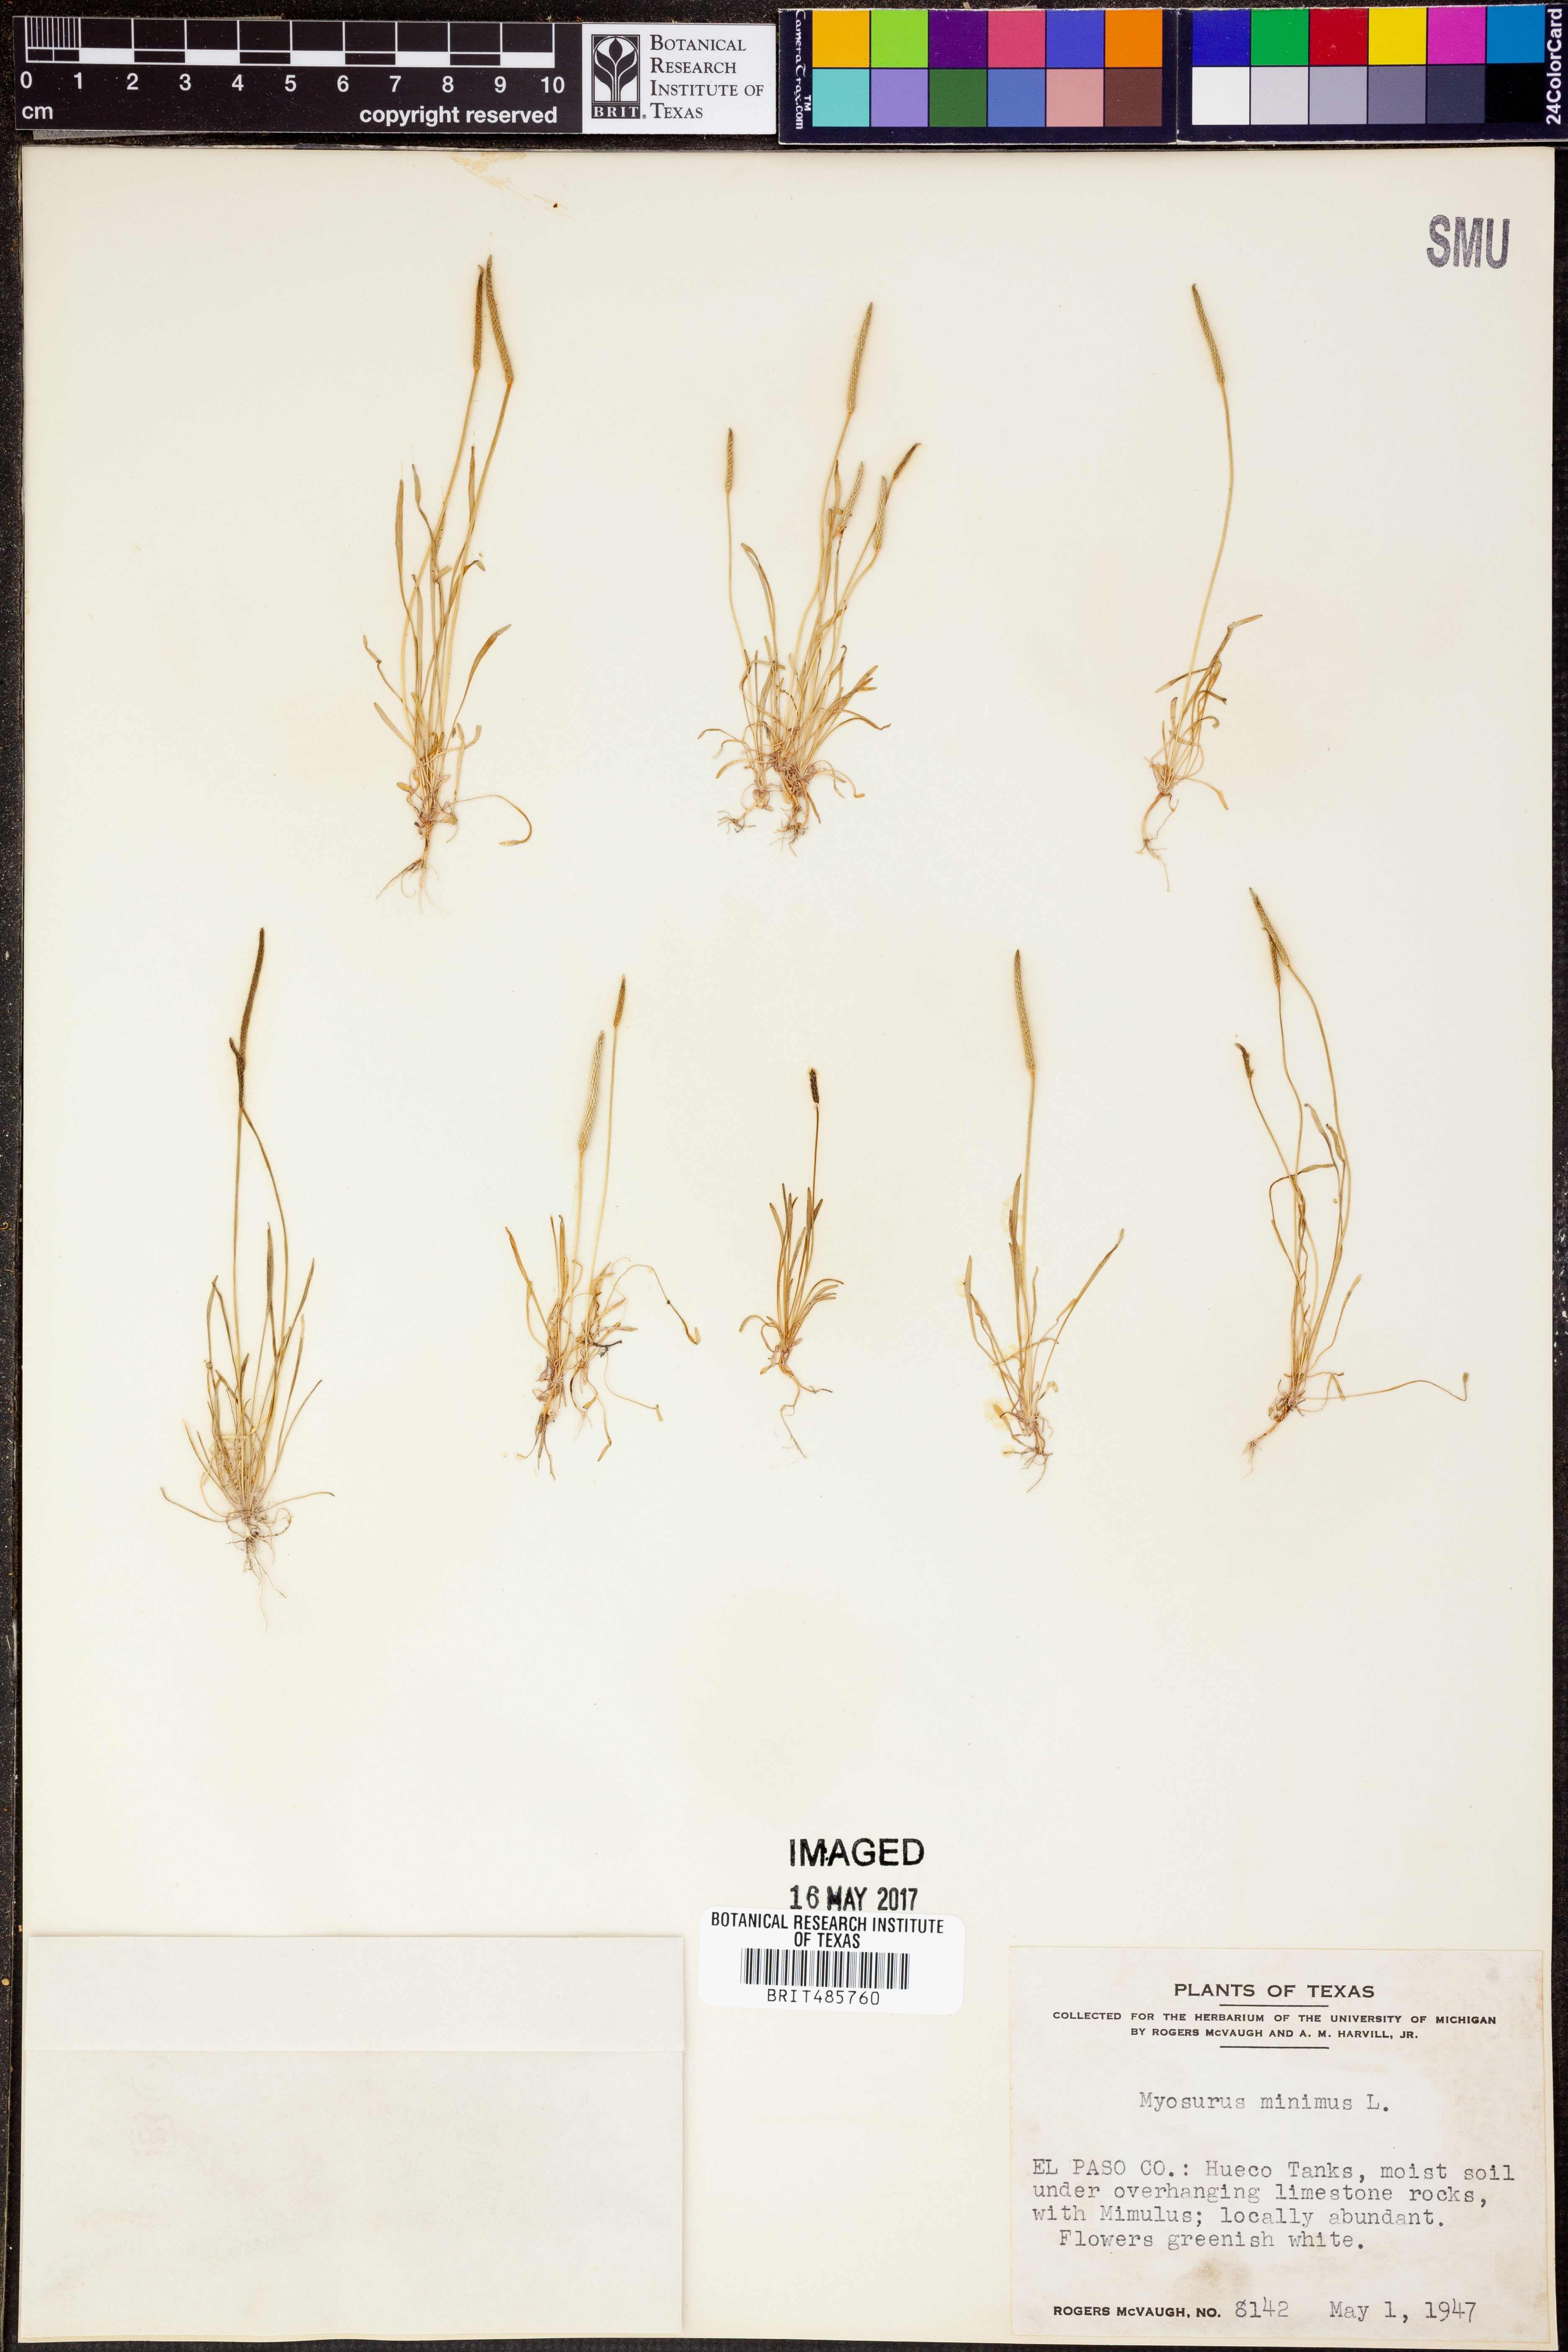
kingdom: Plantae
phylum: Tracheophyta
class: Magnoliopsida
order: Ranunculales
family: Ranunculaceae
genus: Myosurus
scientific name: Myosurus minimus
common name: Mousetail
